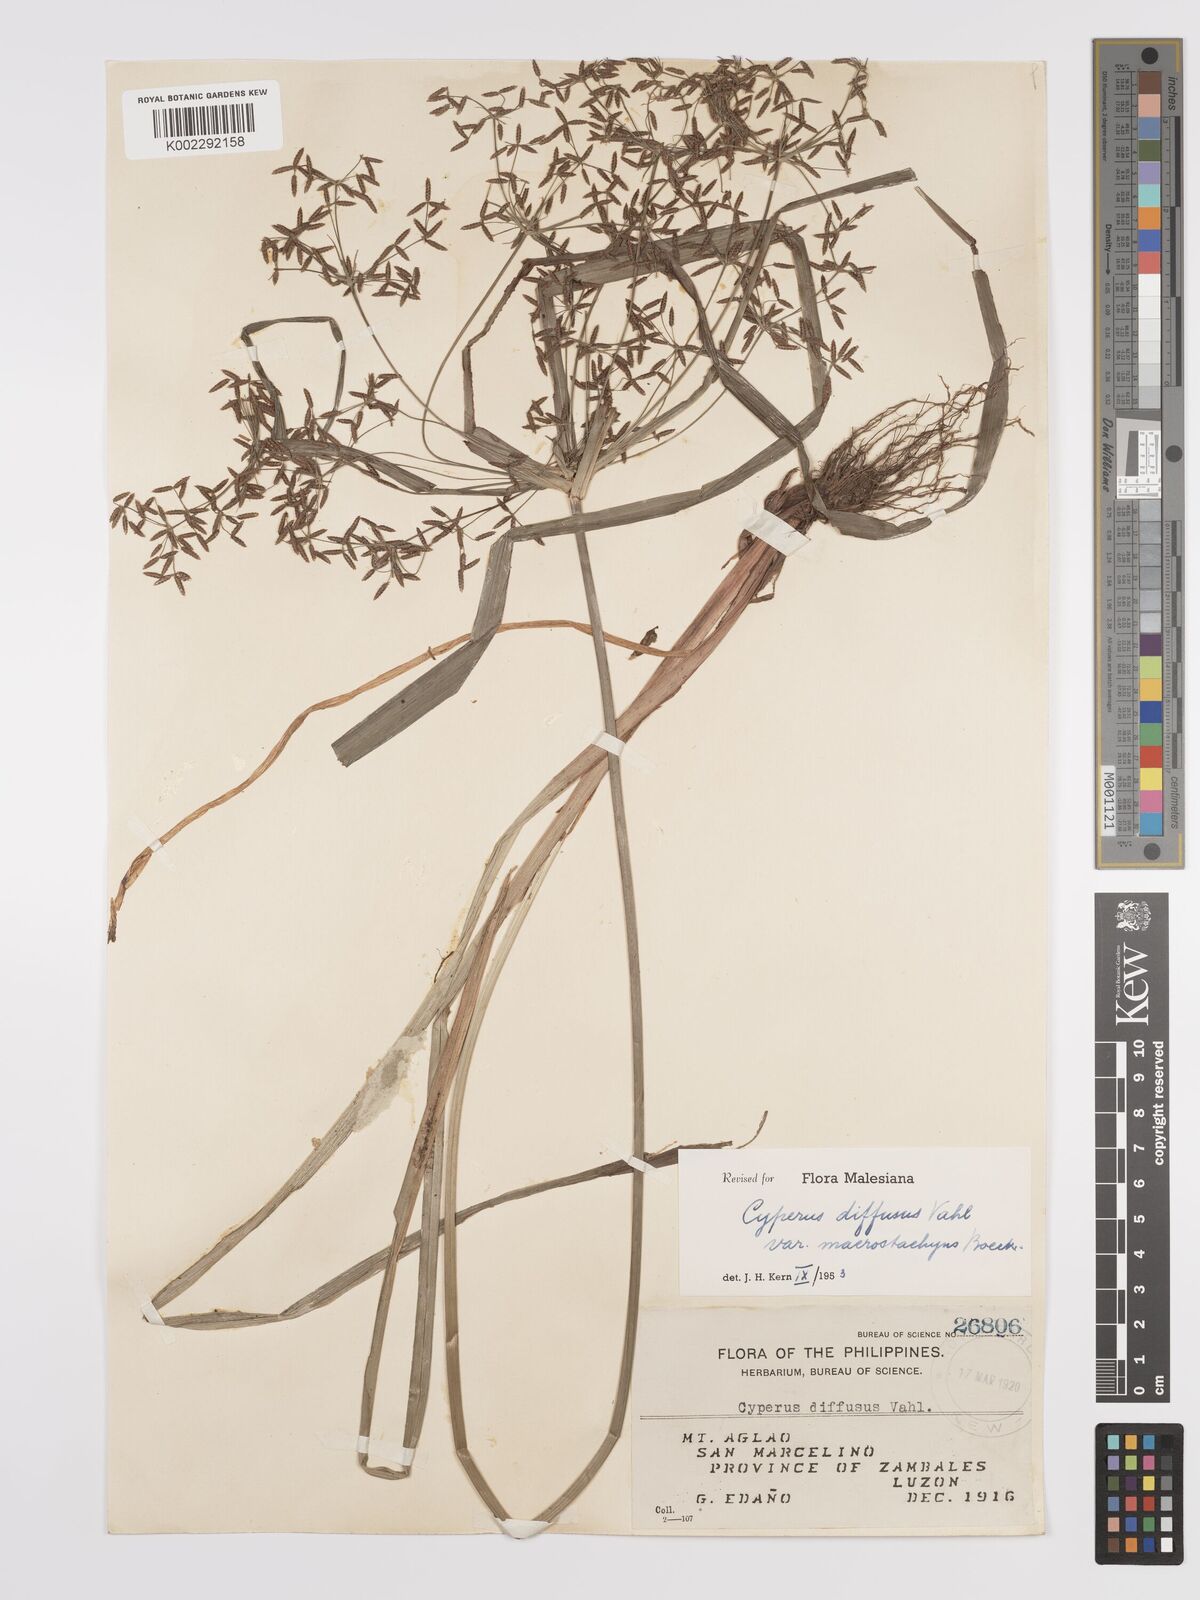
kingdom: Plantae
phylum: Tracheophyta
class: Liliopsida
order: Poales
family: Cyperaceae
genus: Cyperus
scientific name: Cyperus diffusus
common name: Dwarf umbrella grass
